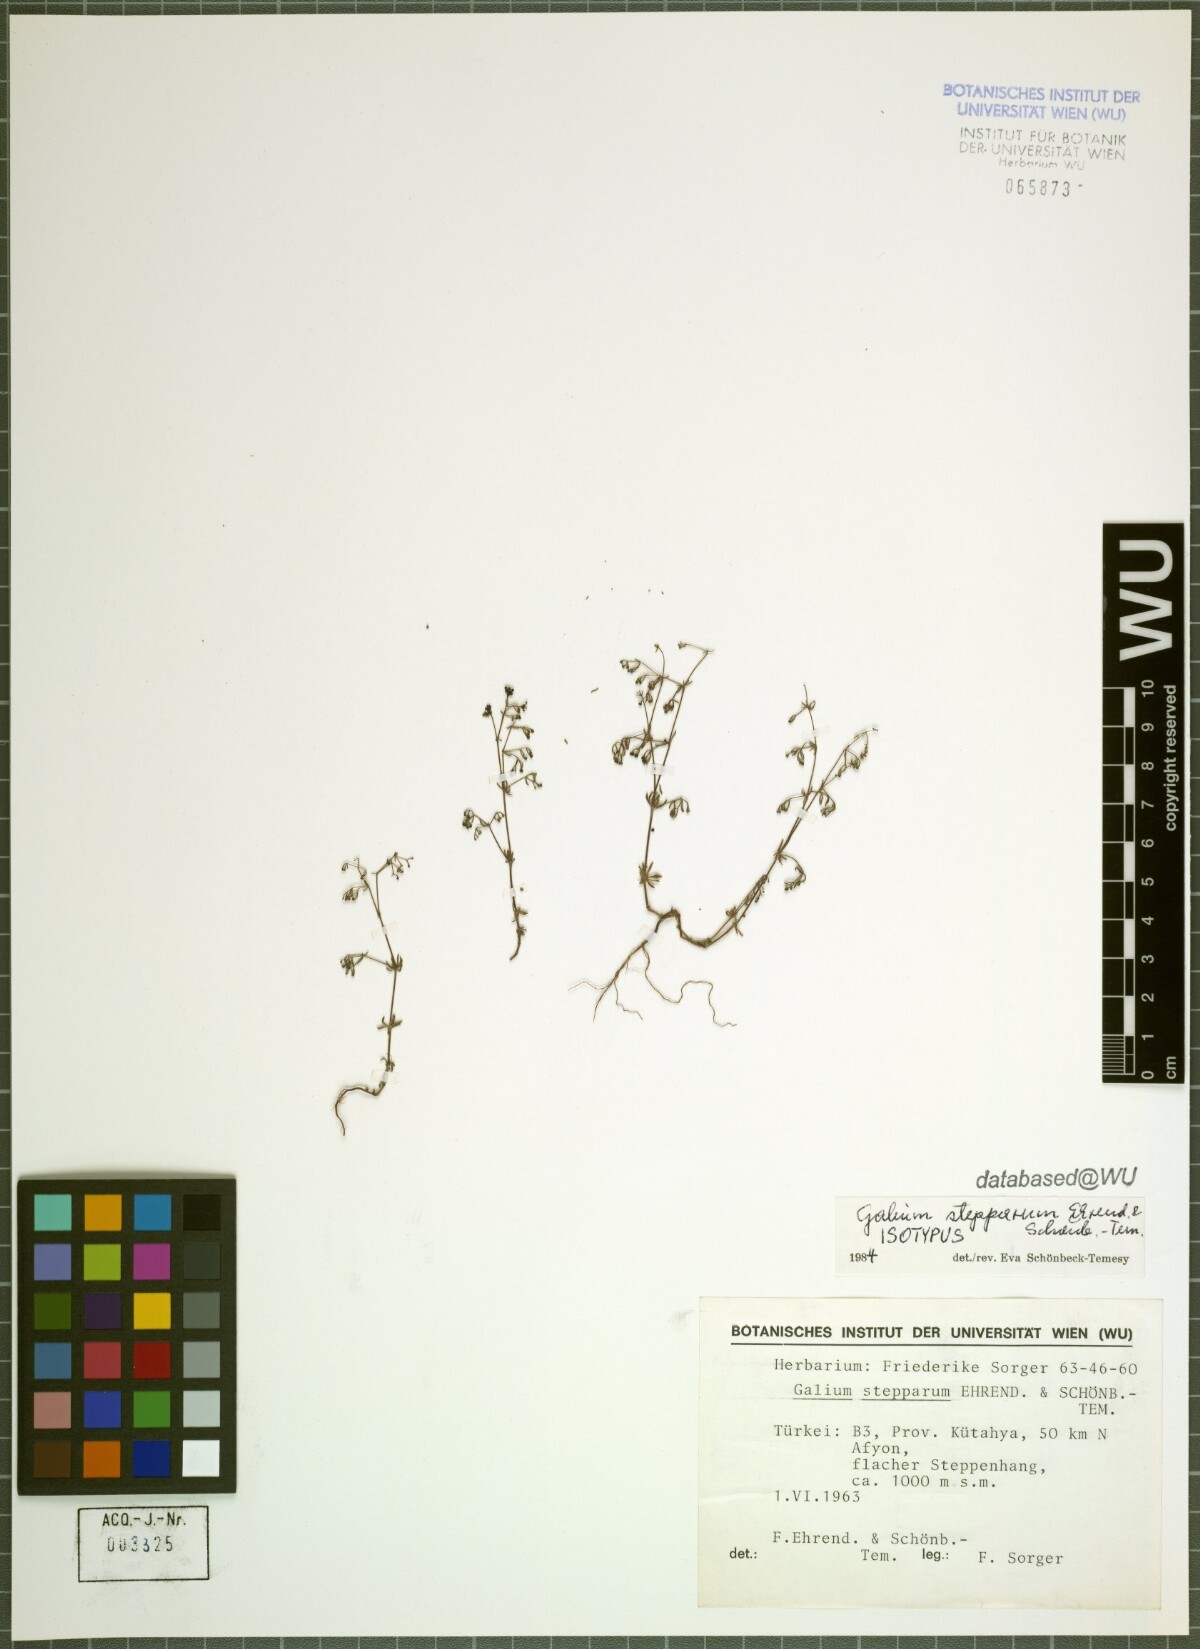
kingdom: Plantae
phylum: Tracheophyta
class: Magnoliopsida
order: Gentianales
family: Rubiaceae
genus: Galium
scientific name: Galium stepparum
